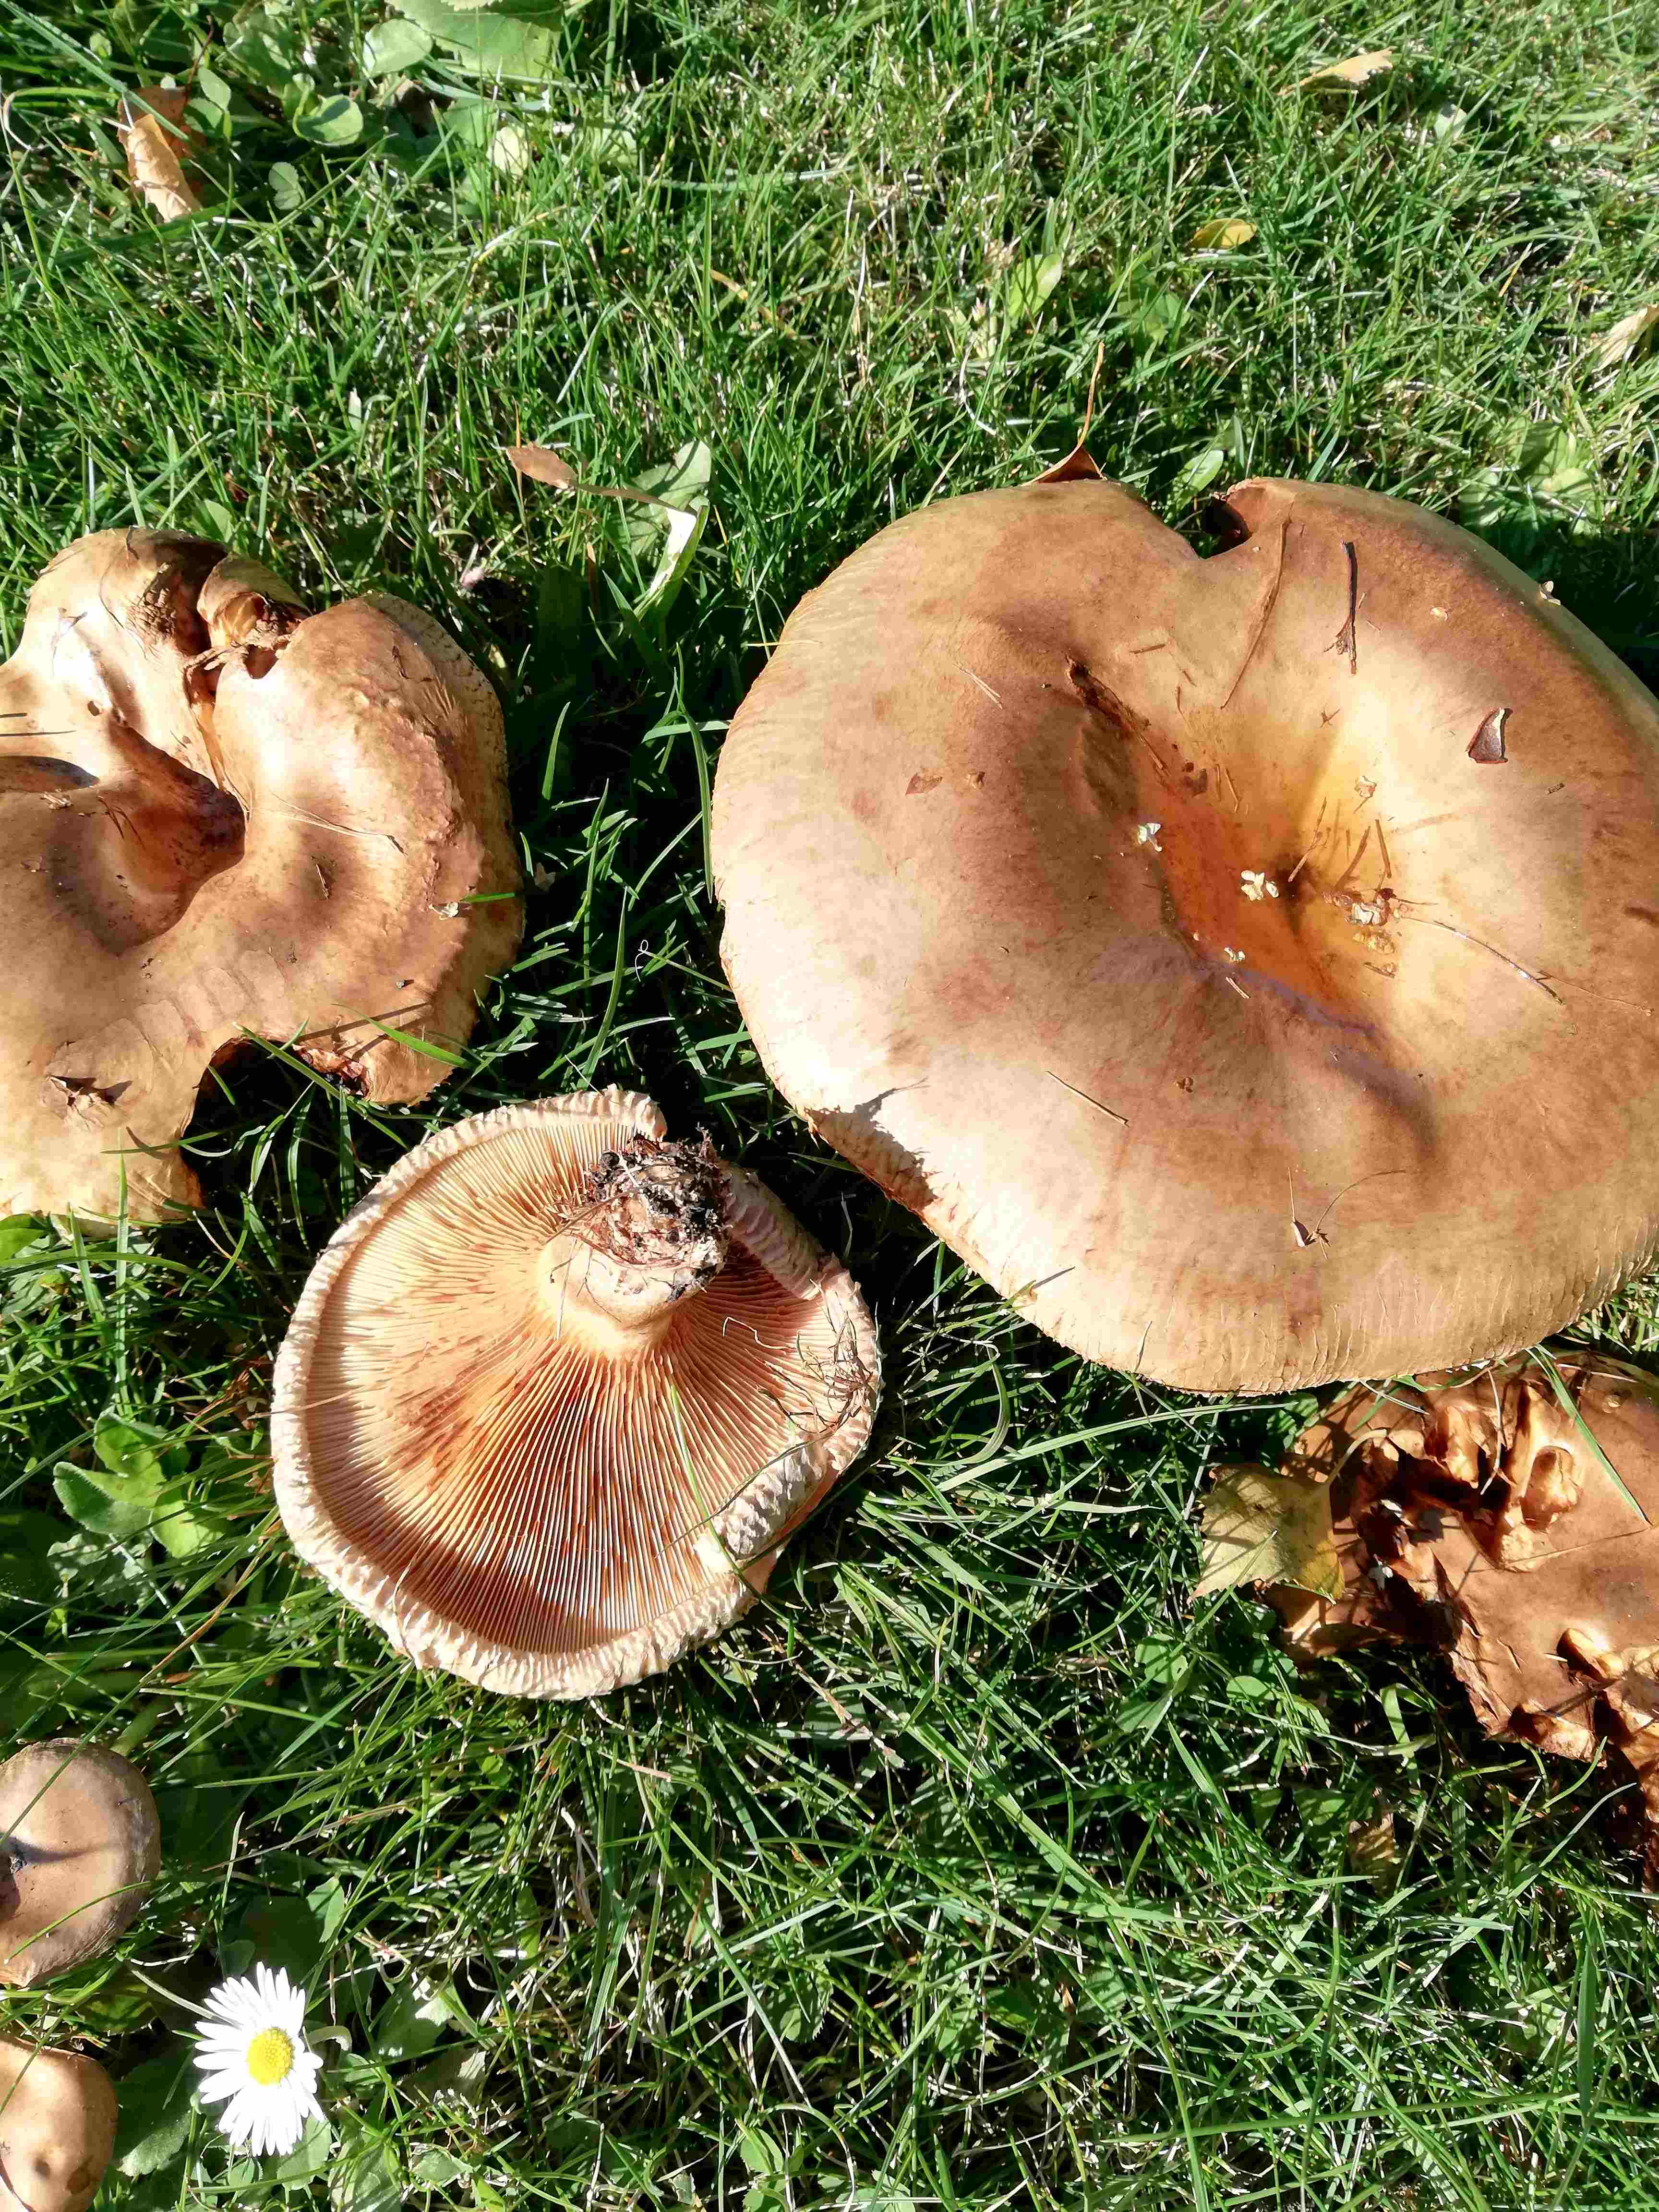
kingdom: Fungi
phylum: Basidiomycota
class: Agaricomycetes
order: Boletales
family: Paxillaceae
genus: Paxillus
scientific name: Paxillus
